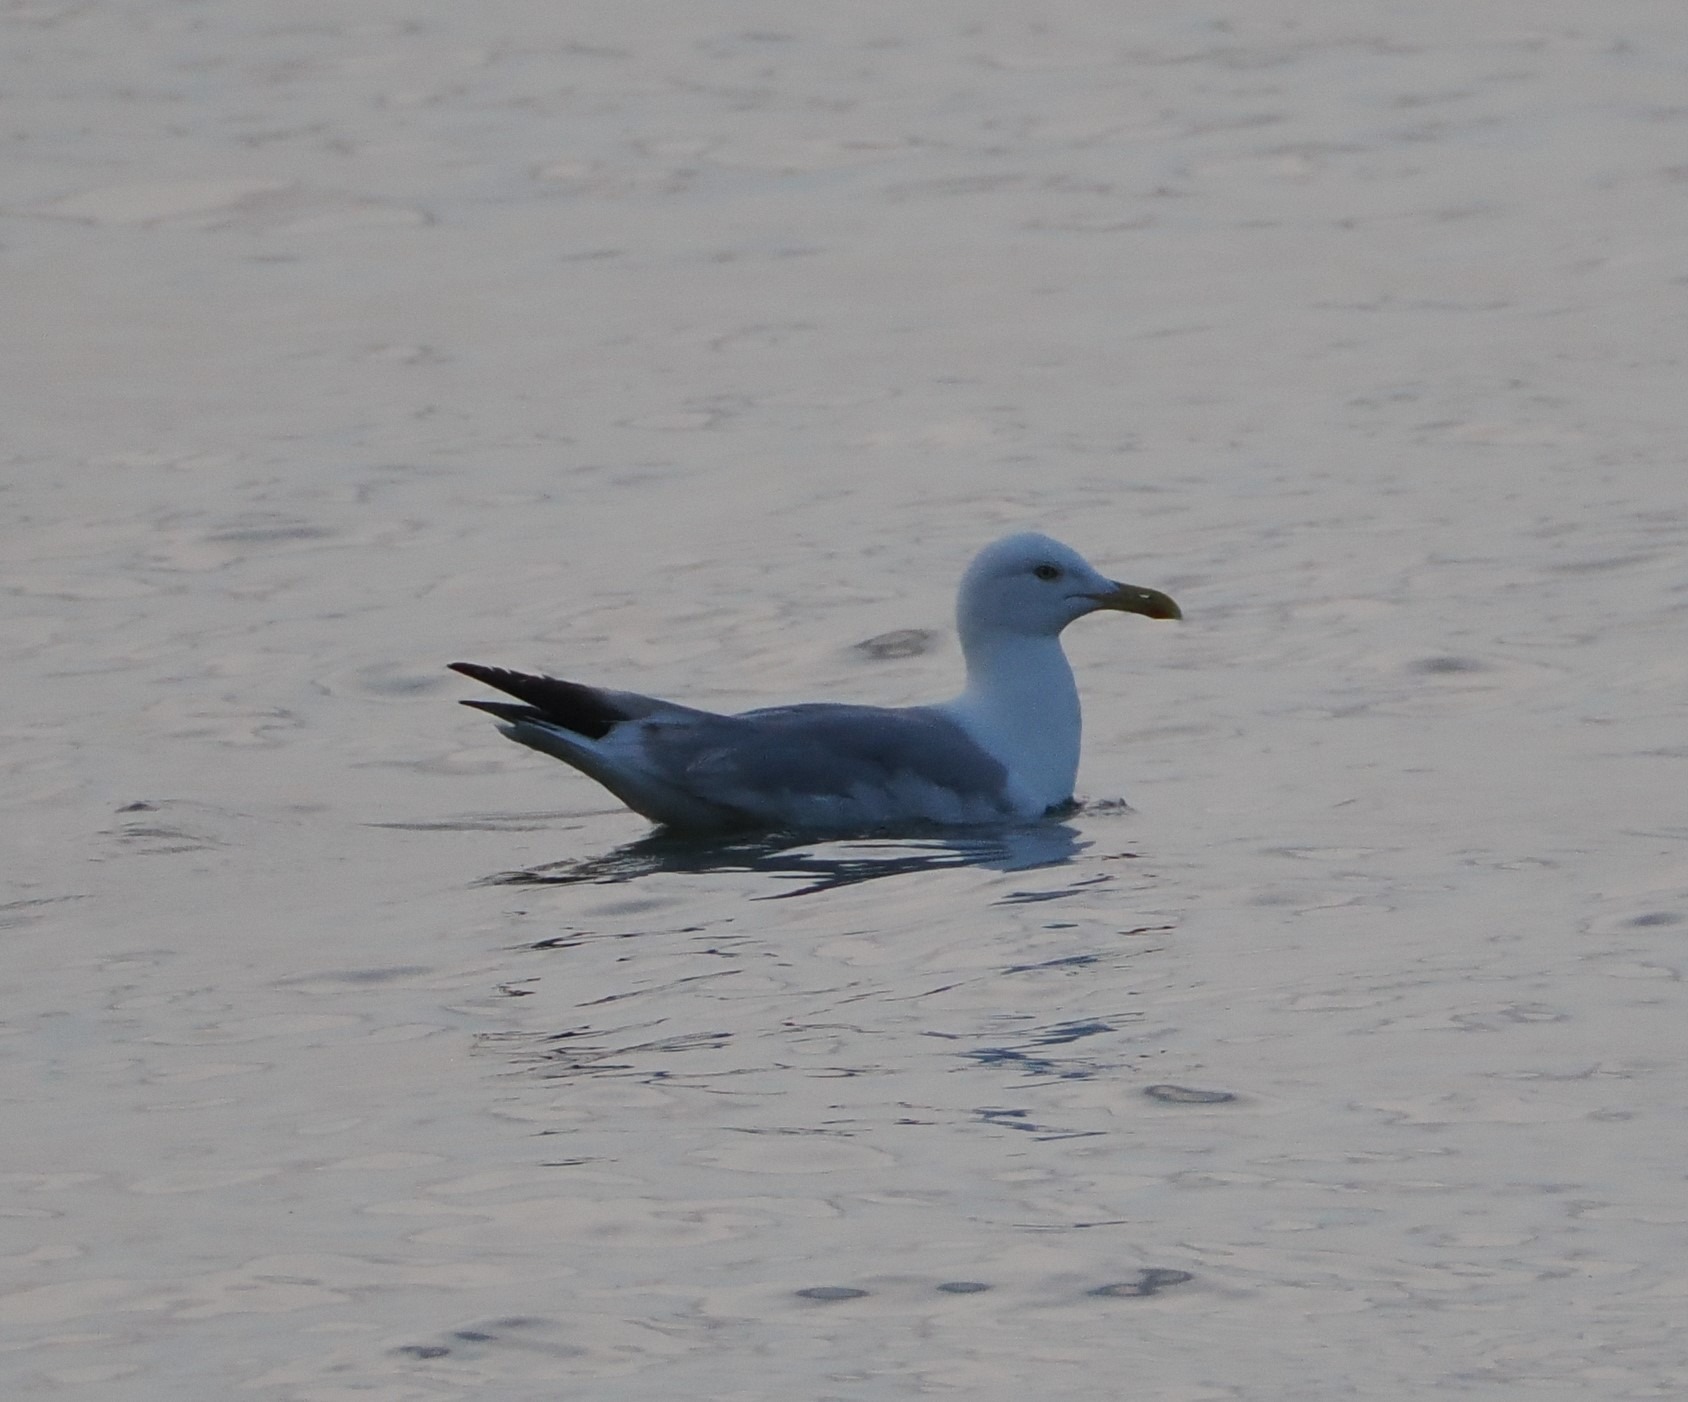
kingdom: Animalia
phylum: Chordata
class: Aves
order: Charadriiformes
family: Laridae
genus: Larus
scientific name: Larus argentatus
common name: Sølvmåge
